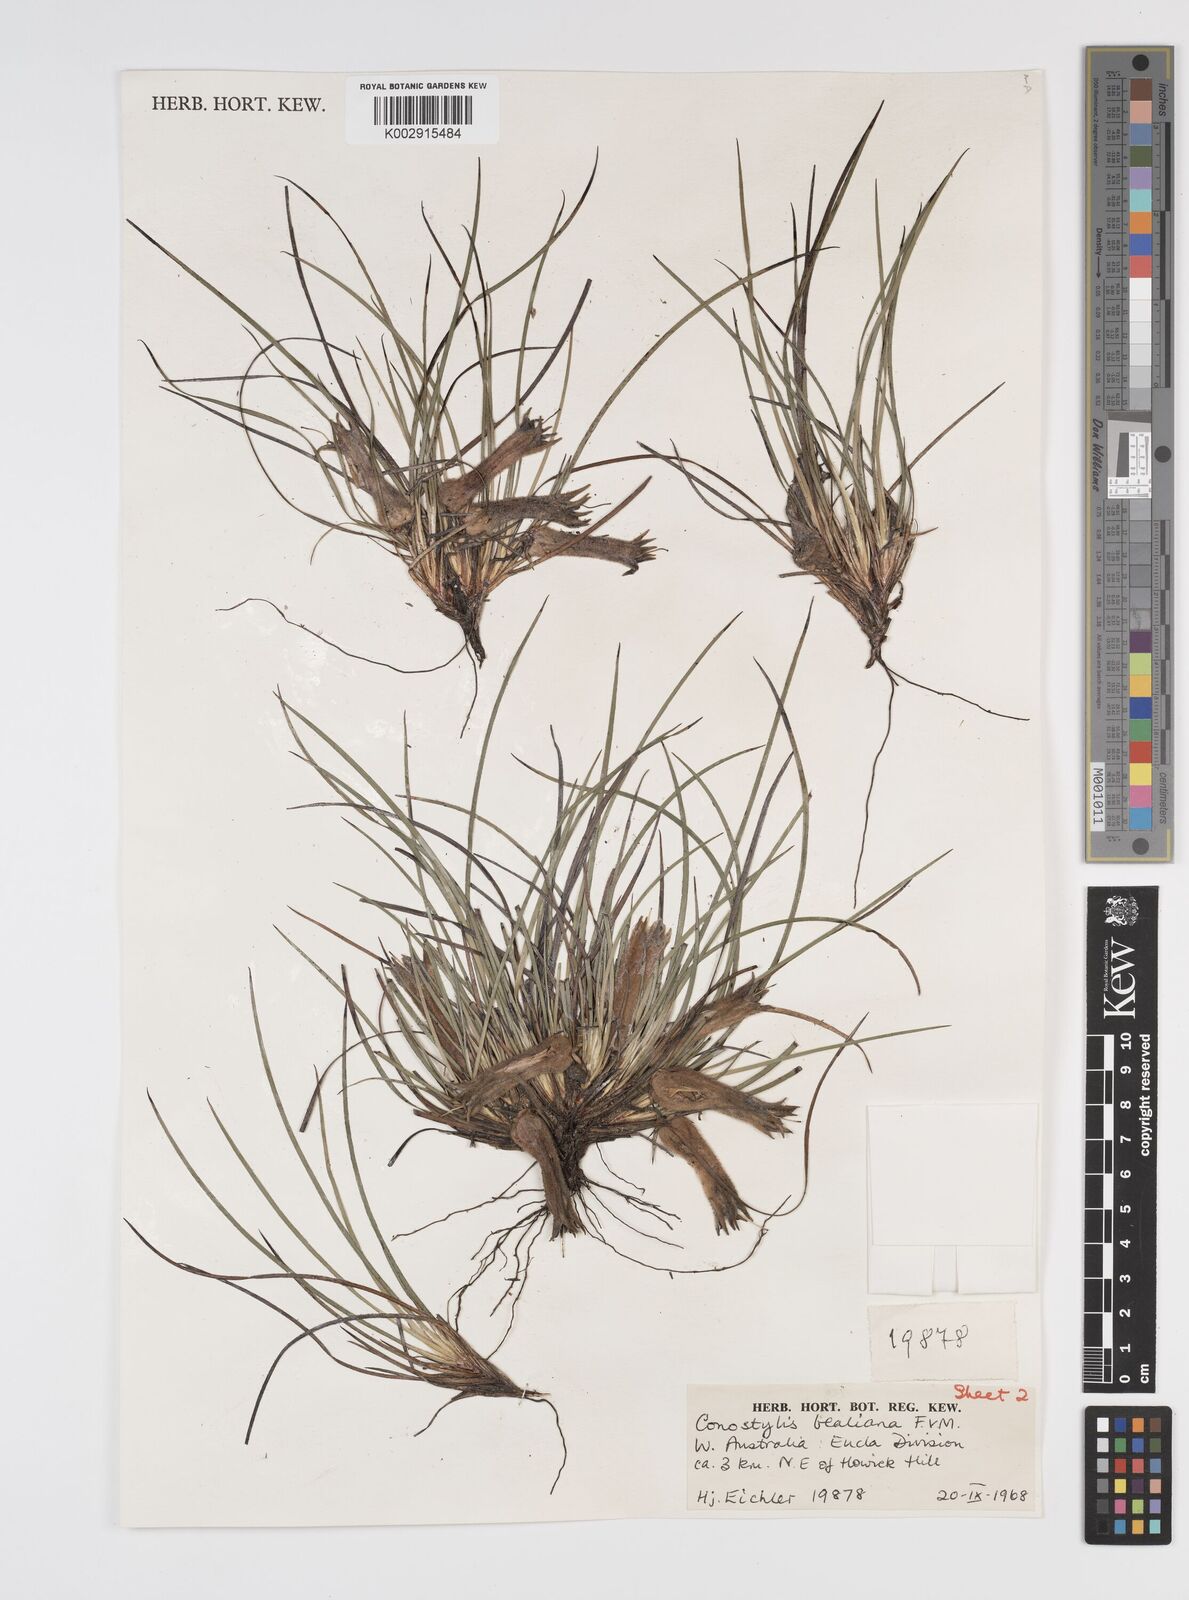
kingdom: Plantae
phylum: Tracheophyta
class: Liliopsida
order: Commelinales
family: Haemodoraceae
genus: Conostylis
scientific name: Conostylis bealiana
